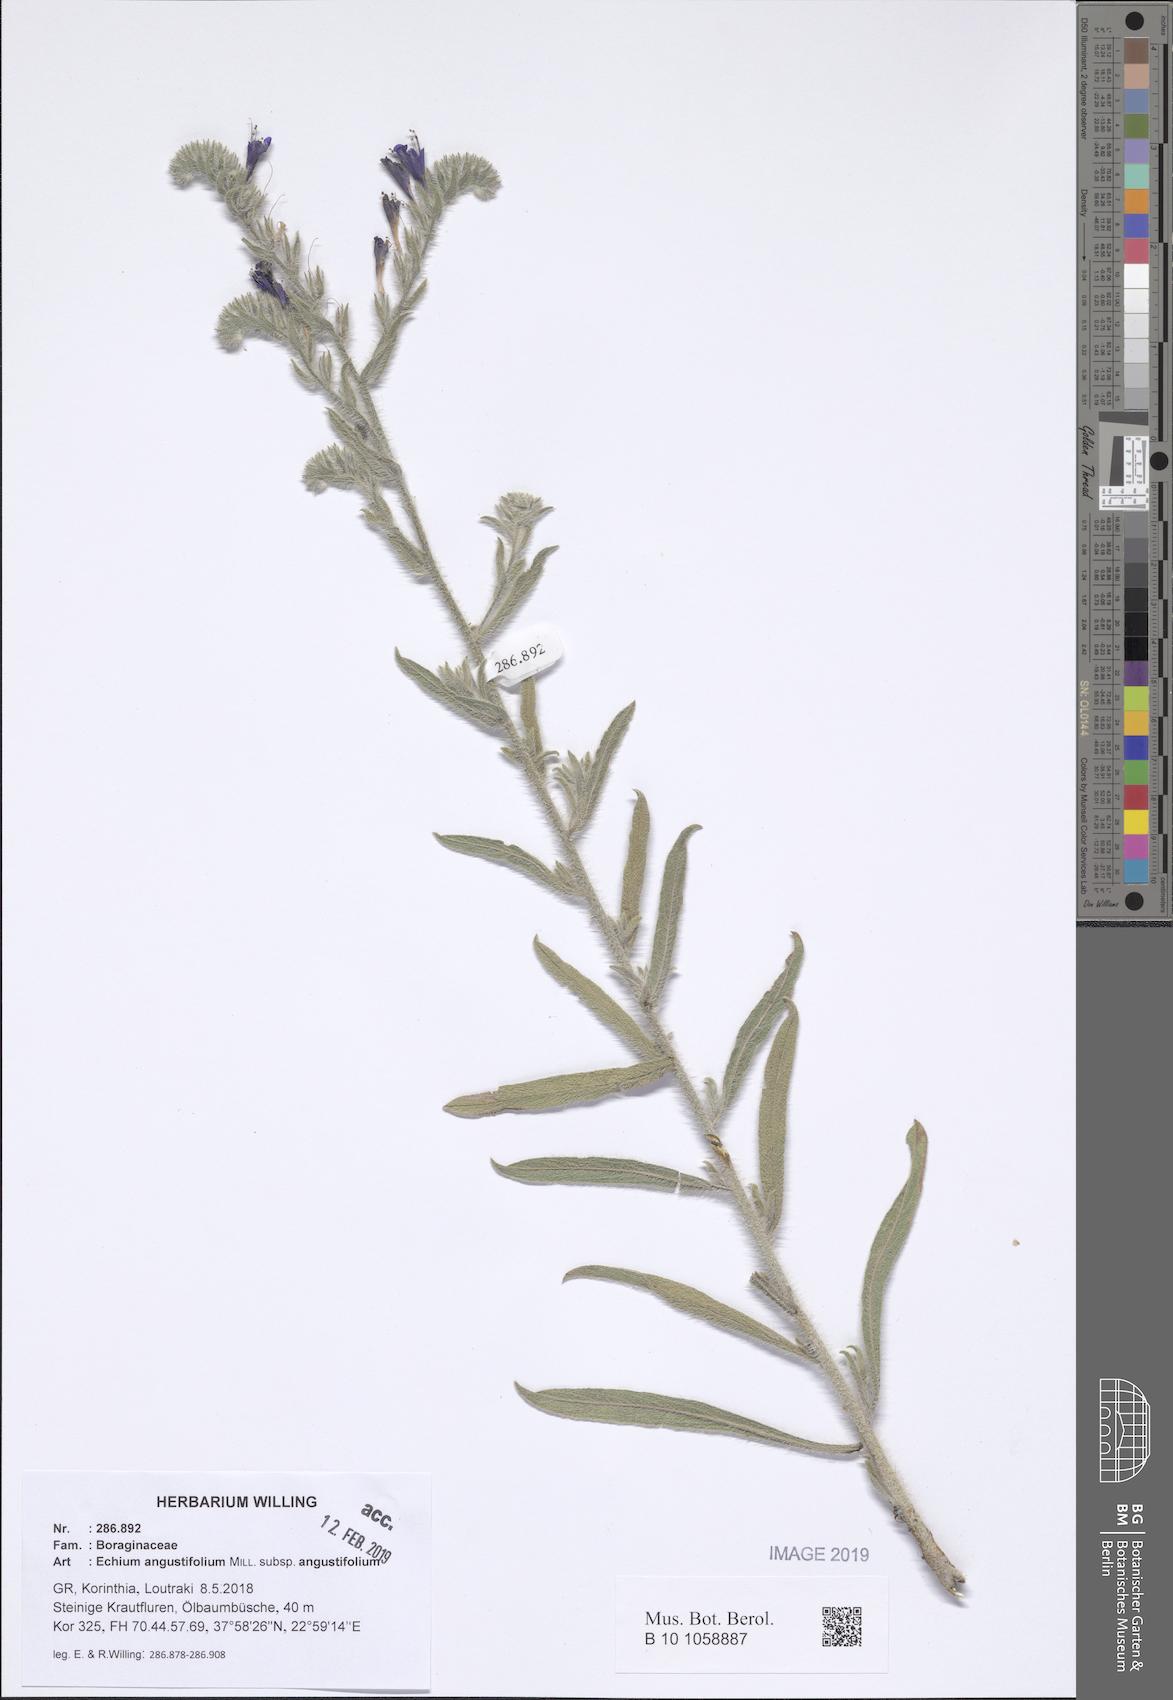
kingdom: Plantae
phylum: Tracheophyta
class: Magnoliopsida
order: Boraginales
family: Boraginaceae
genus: Echium
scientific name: Echium angustifolium
